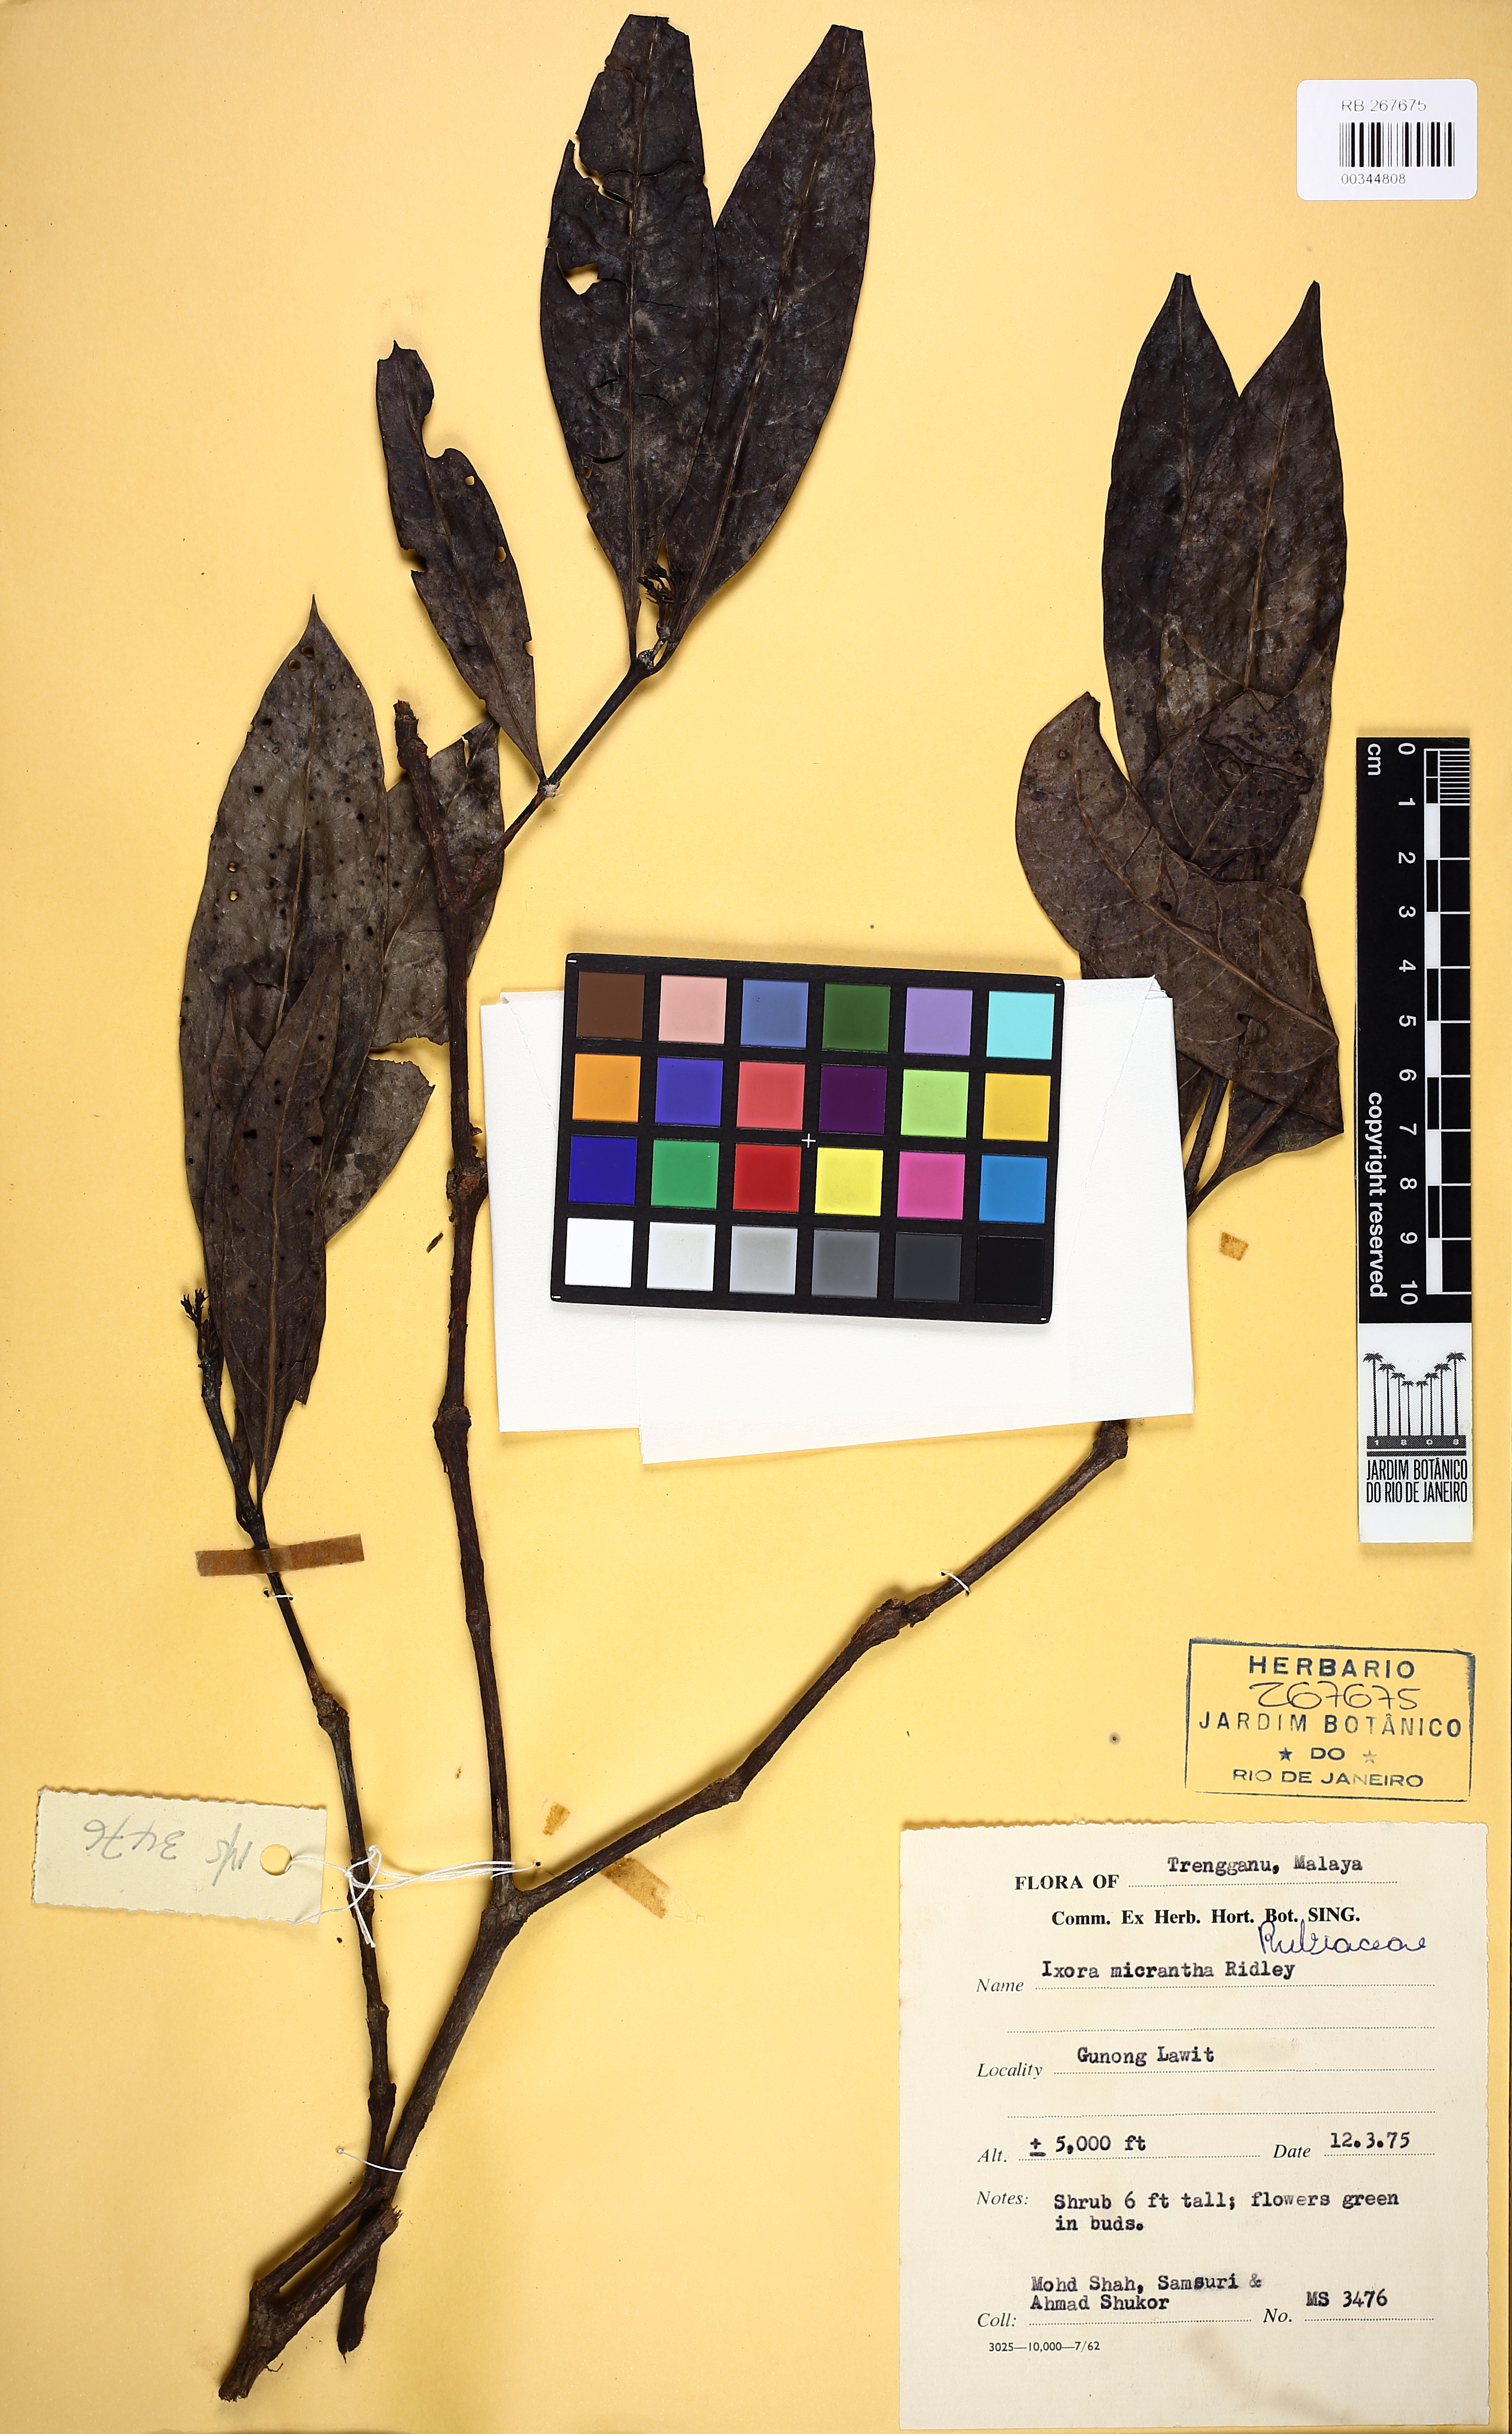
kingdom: Plantae
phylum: Tracheophyta
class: Magnoliopsida
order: Gentianales
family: Rubiaceae
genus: Ixora
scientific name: Ixora patens
